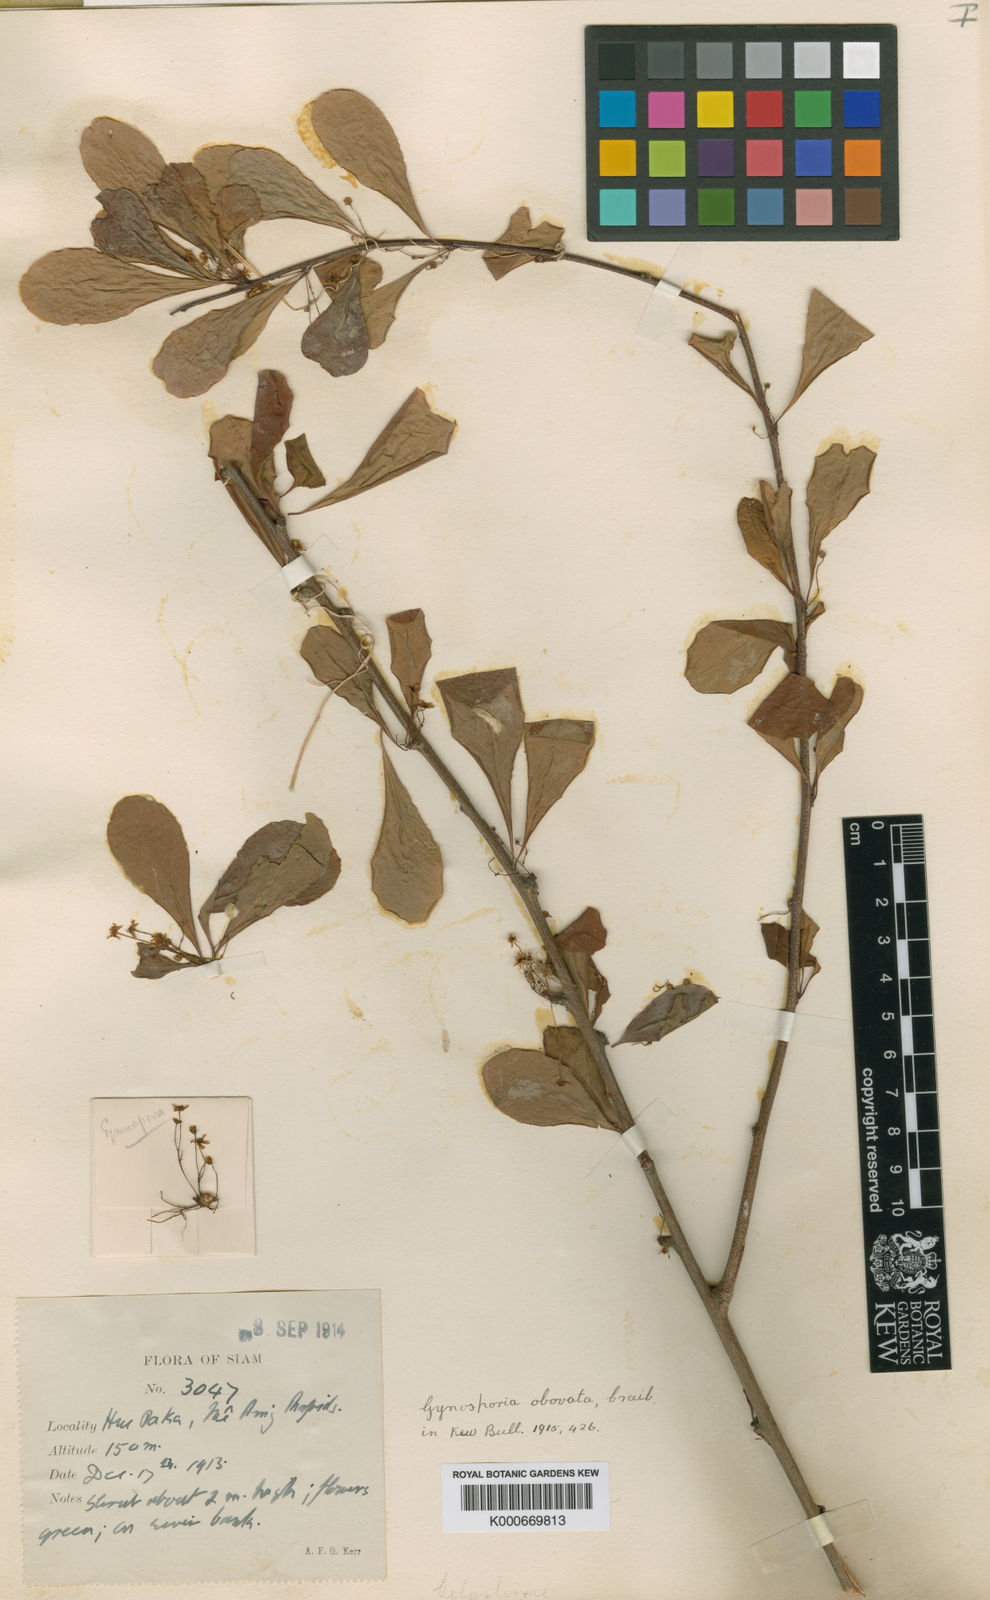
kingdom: Plantae
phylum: Tracheophyta
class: Magnoliopsida
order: Celastrales
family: Celastraceae
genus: Gymnosporia
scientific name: Gymnosporia diversifolia
